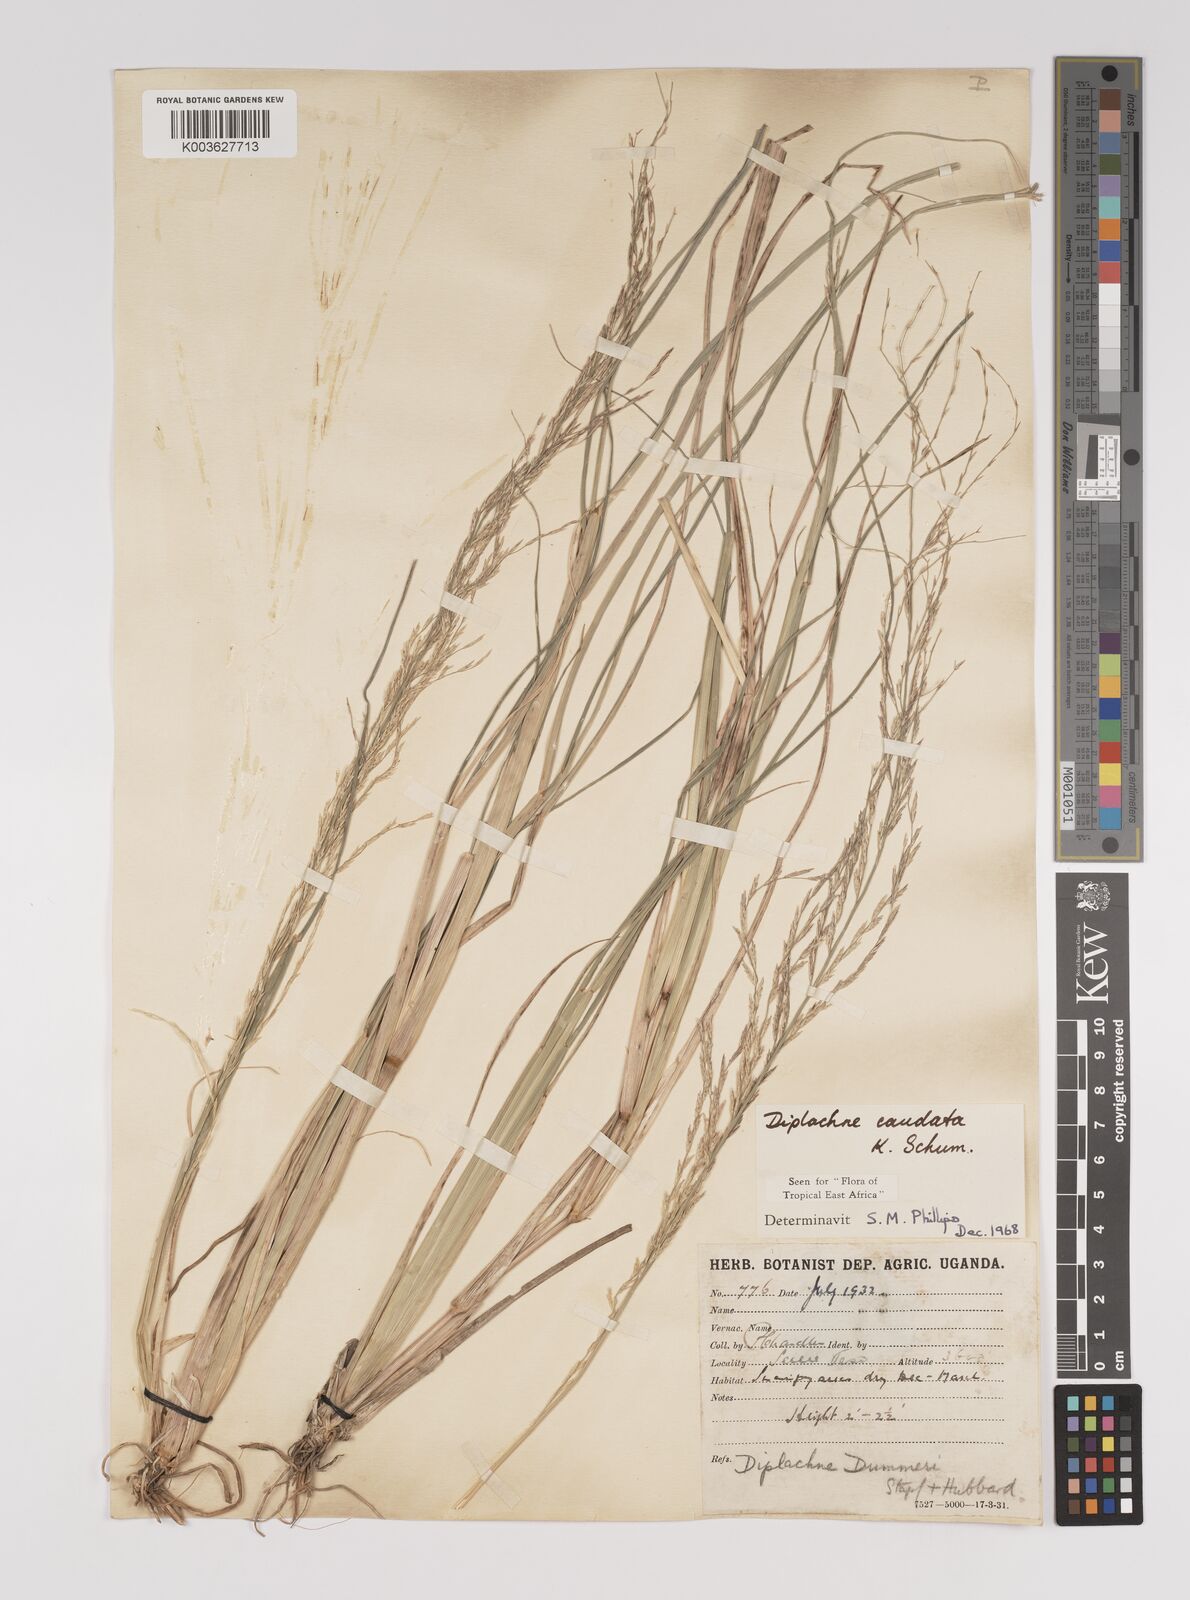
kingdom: Plantae
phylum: Tracheophyta
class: Liliopsida
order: Poales
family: Poaceae
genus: Leptochloa
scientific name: Leptochloa caudata
